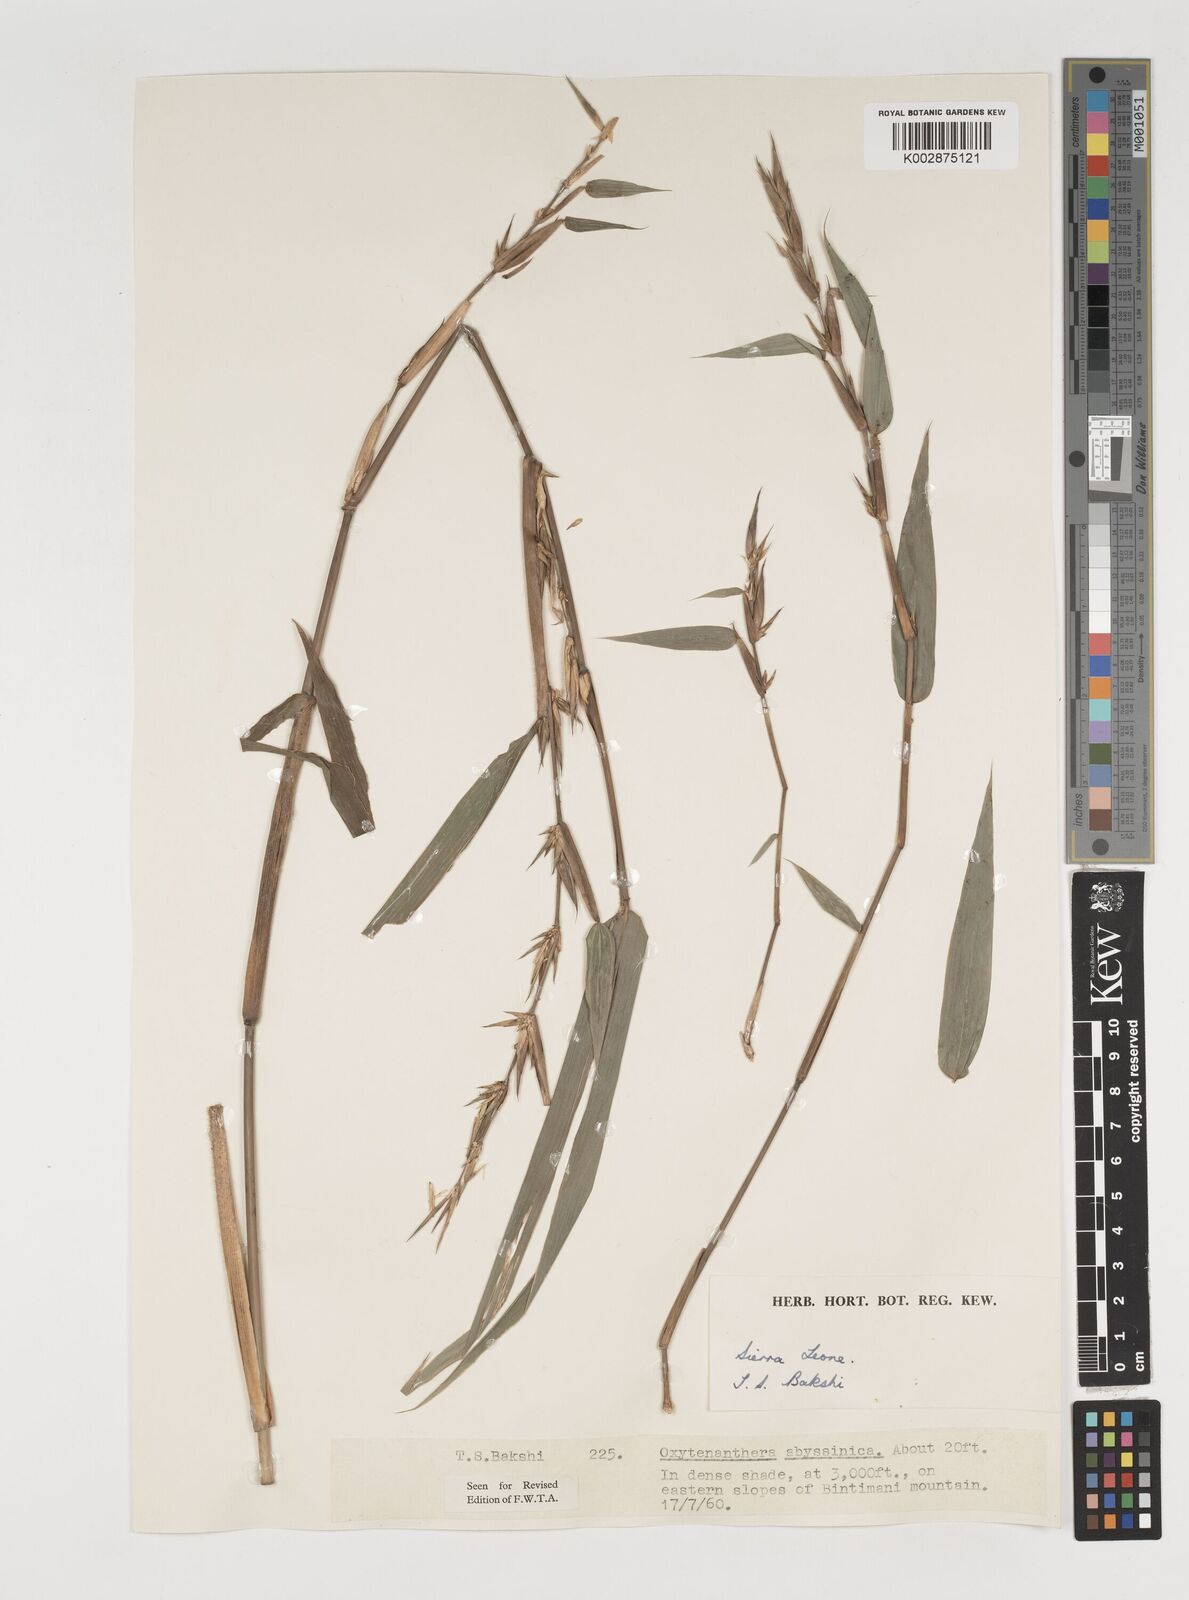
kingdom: Plantae
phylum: Tracheophyta
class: Liliopsida
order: Poales
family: Poaceae
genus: Oxytenanthera
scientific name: Oxytenanthera abyssinica
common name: Wine bamboo
